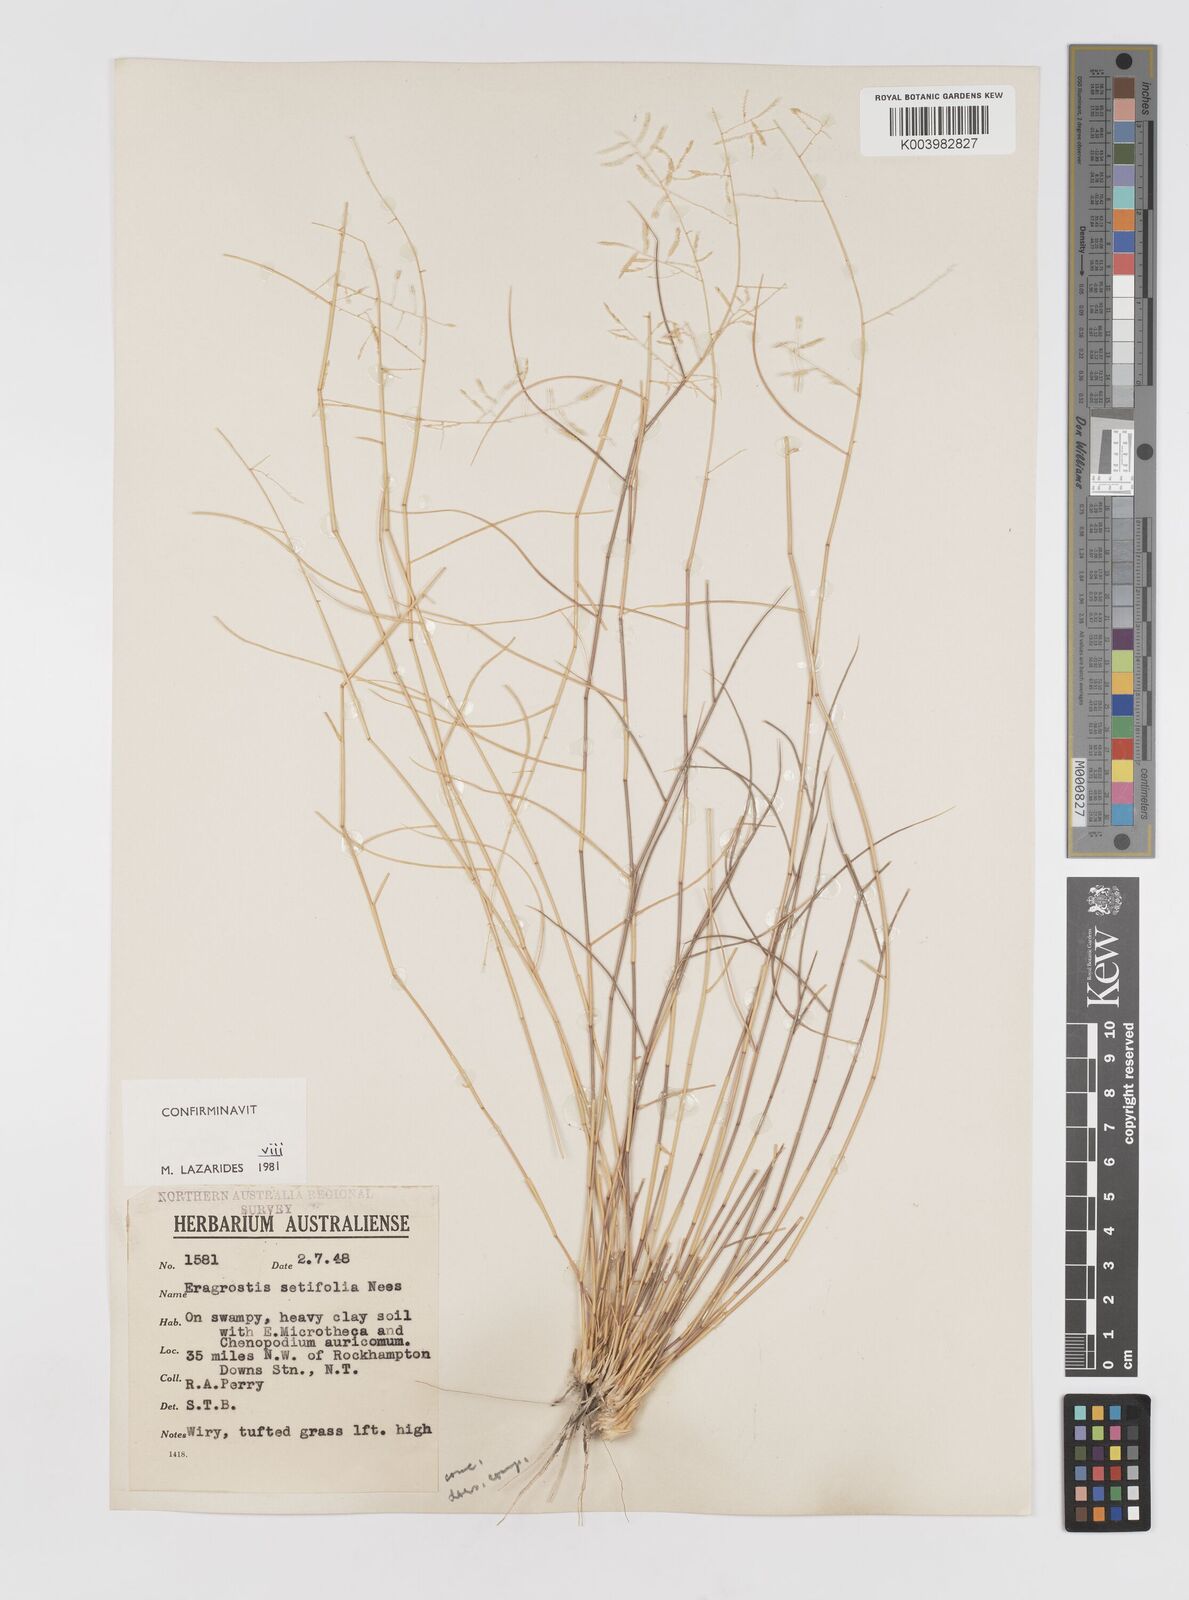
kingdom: Plantae
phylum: Tracheophyta
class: Liliopsida
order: Poales
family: Poaceae
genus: Eragrostis
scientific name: Eragrostis setifolia
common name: Bristleleaf lovegrass
